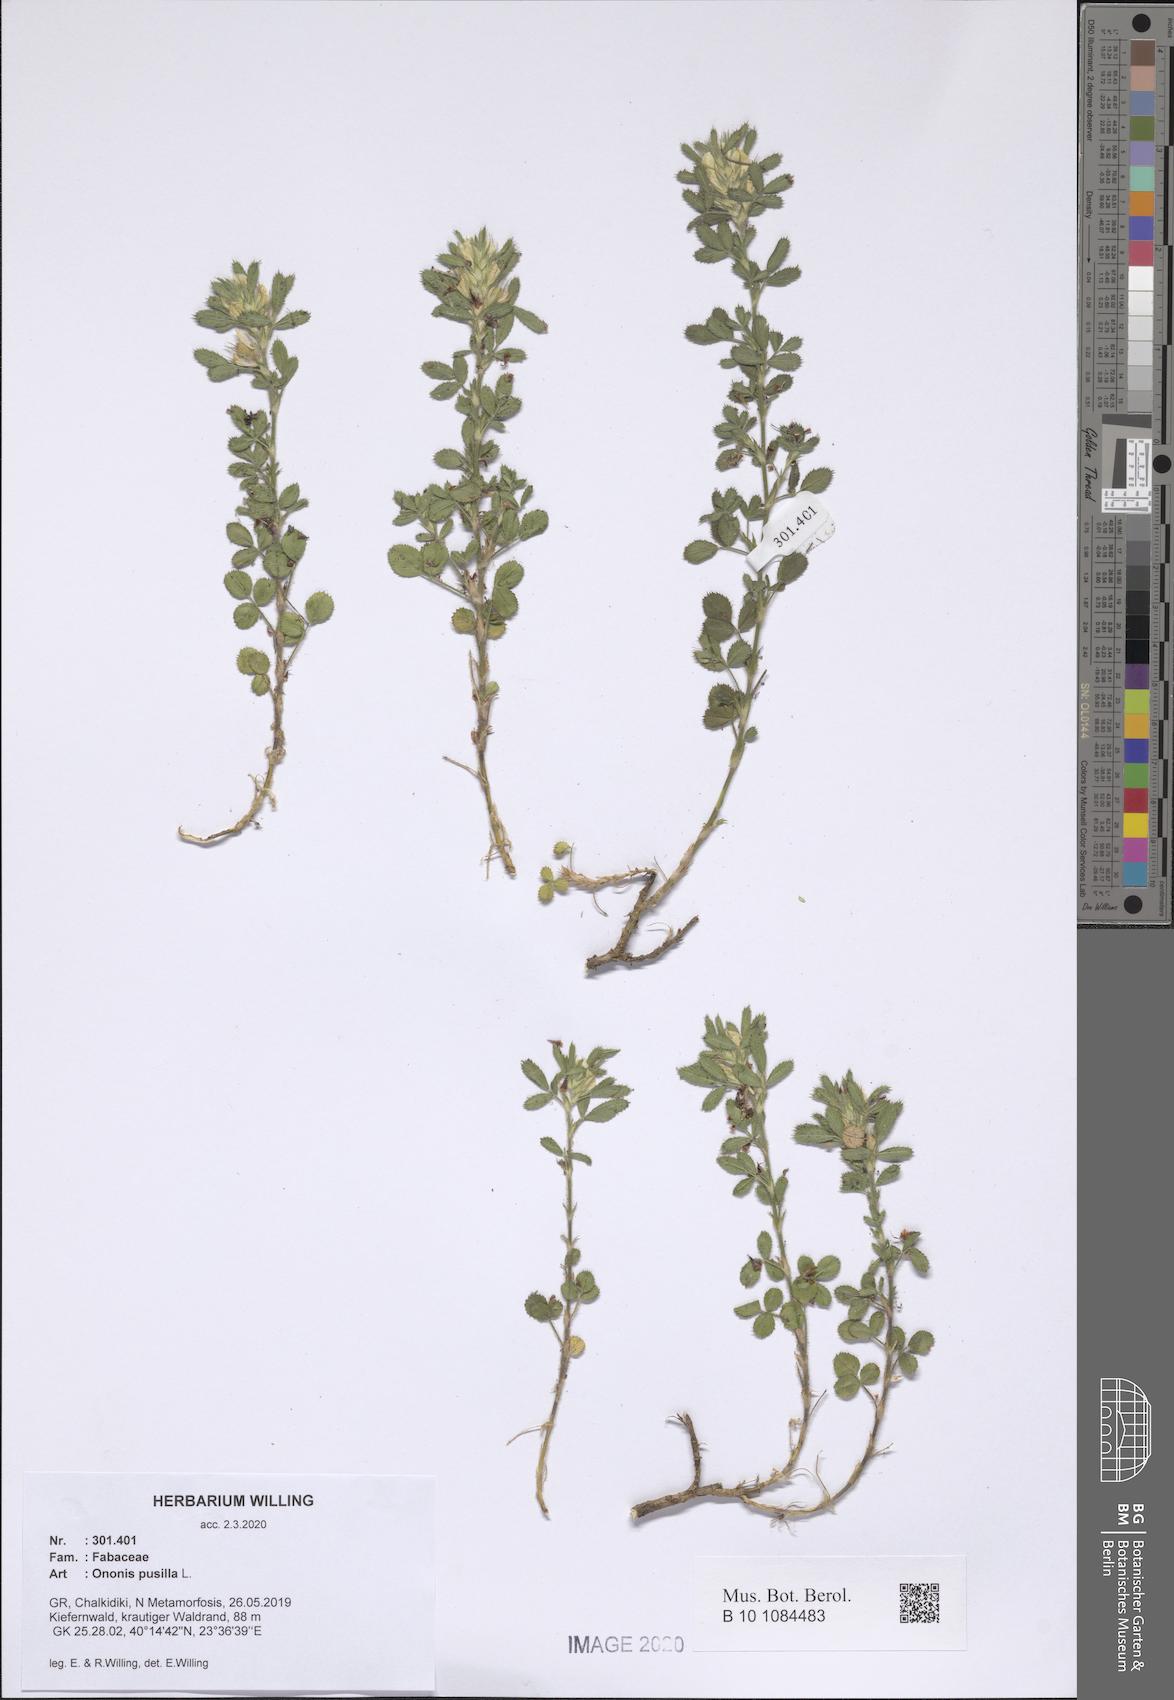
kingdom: Plantae
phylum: Tracheophyta
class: Magnoliopsida
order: Fabales
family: Fabaceae
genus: Ononis
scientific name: Ononis pusilla
